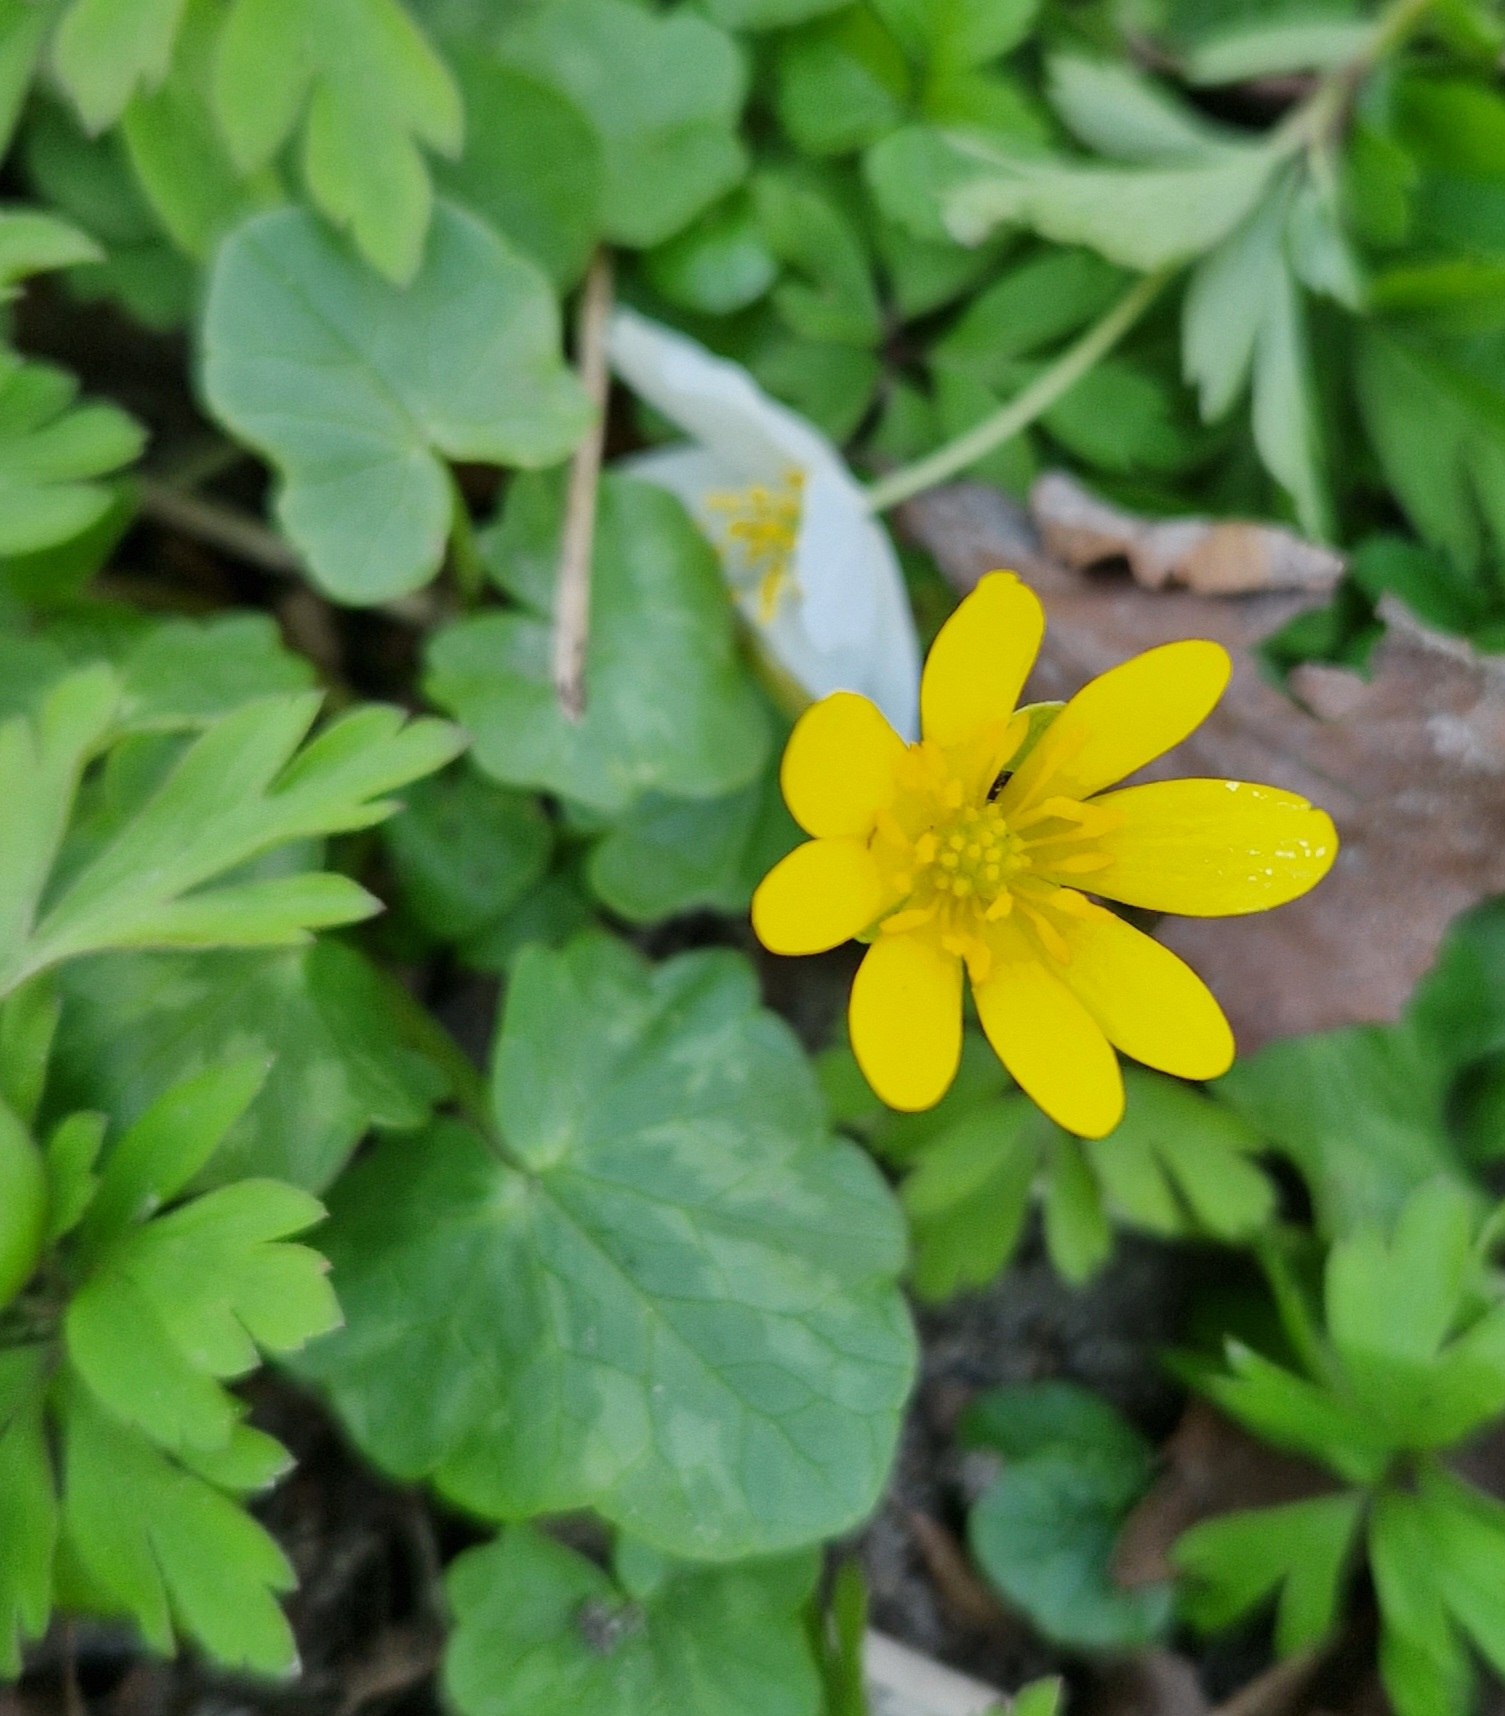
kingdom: Plantae
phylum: Tracheophyta
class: Magnoliopsida
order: Ranunculales
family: Ranunculaceae
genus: Ficaria
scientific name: Ficaria verna
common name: Vorterod
